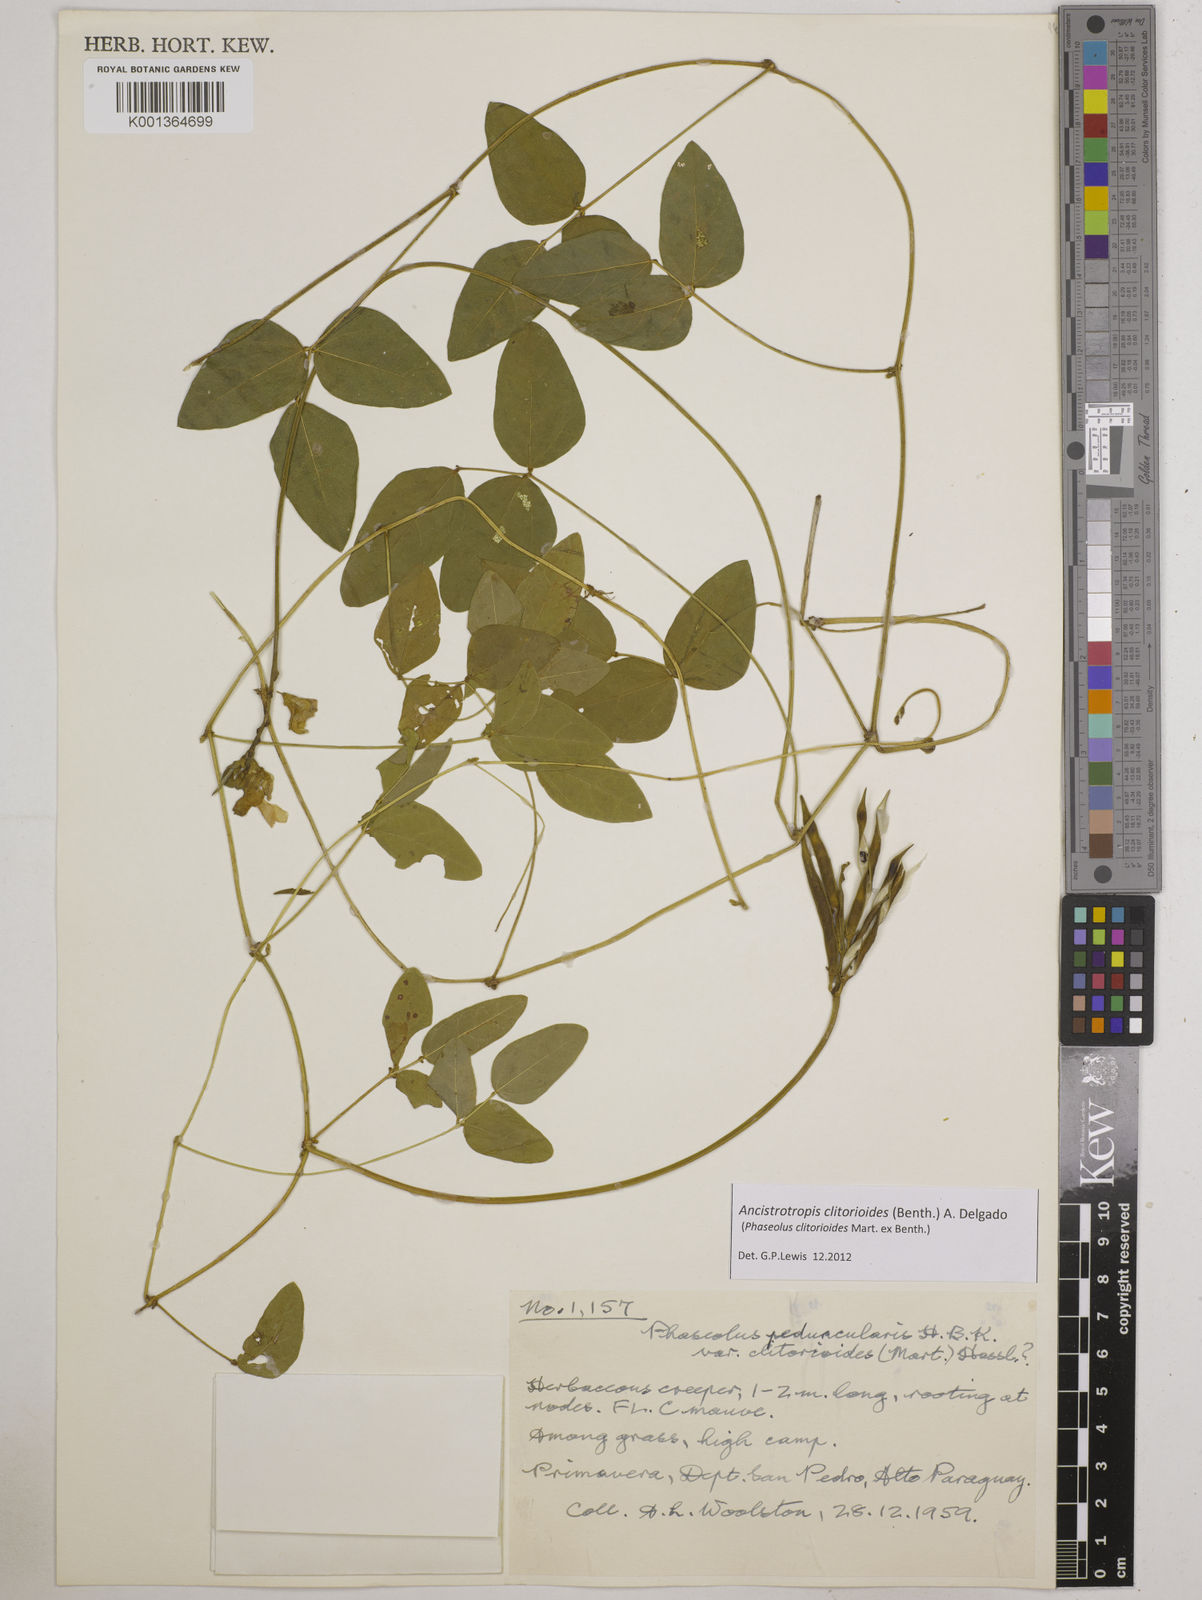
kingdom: Plantae
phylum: Tracheophyta
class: Magnoliopsida
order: Fabales
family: Fabaceae
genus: Ancistrotropis
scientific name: Ancistrotropis clitorioides
